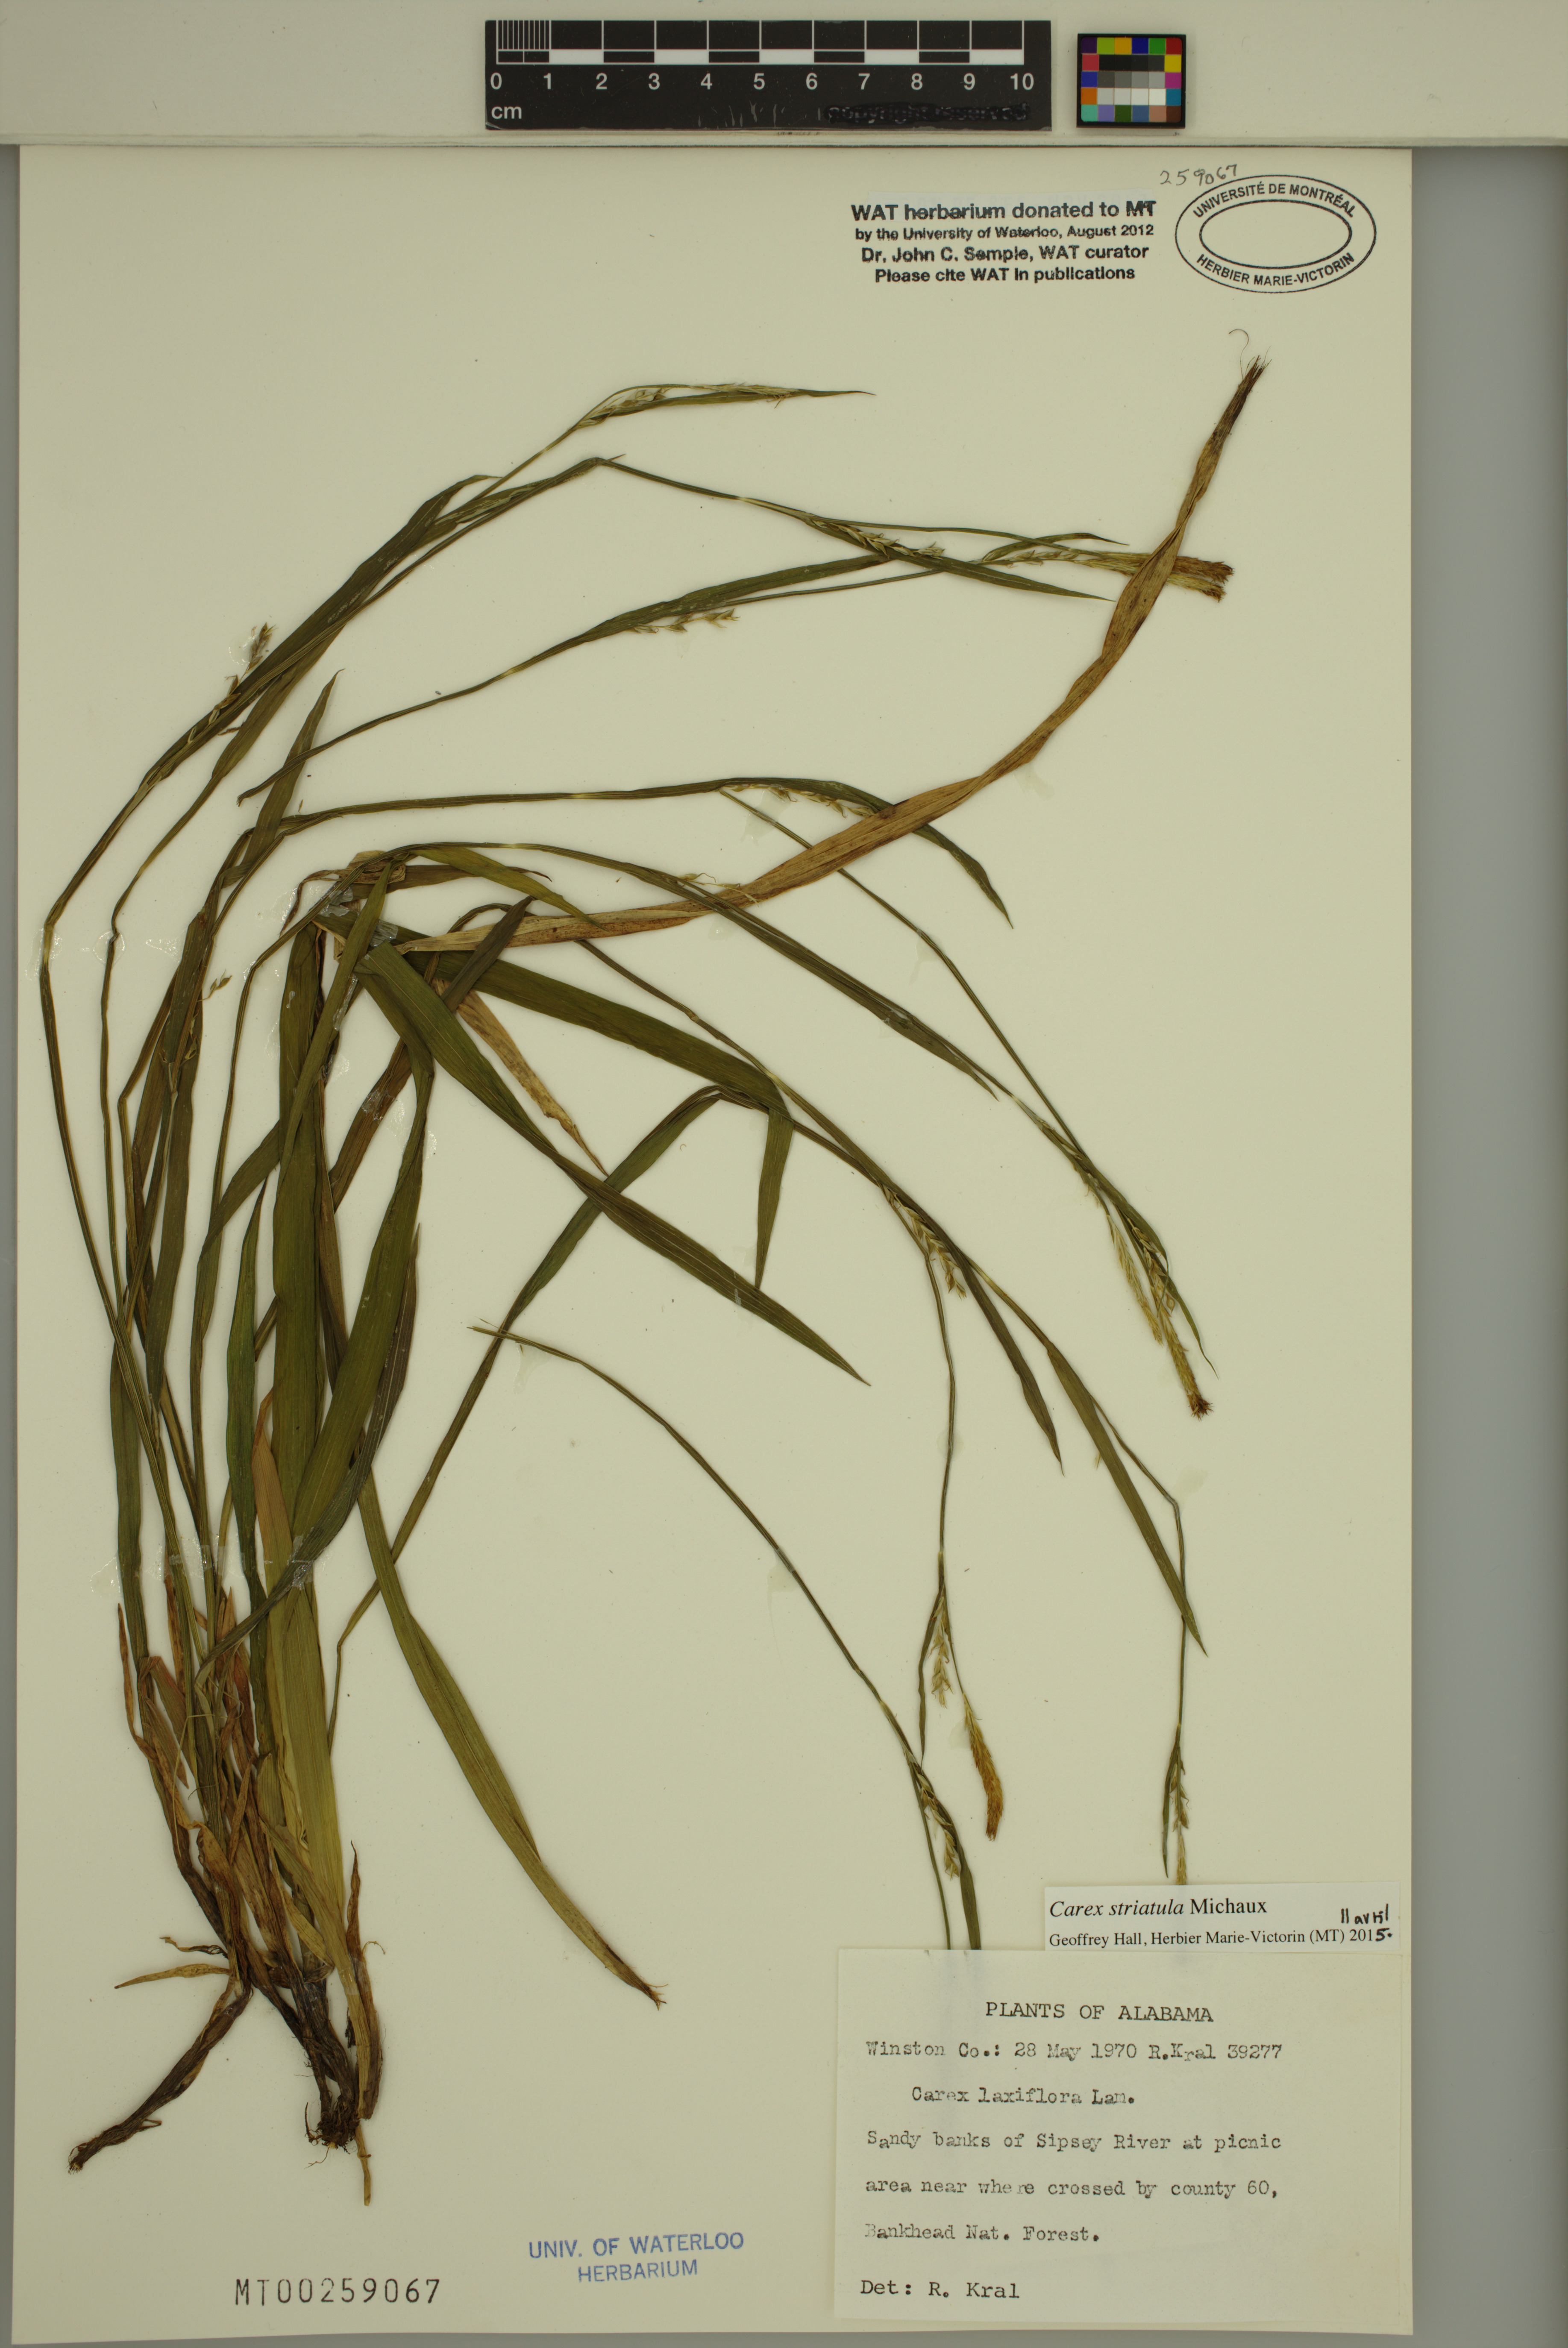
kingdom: Plantae
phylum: Tracheophyta
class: Liliopsida
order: Poales
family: Cyperaceae
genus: Carex
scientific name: Carex striatula
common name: Lined sedge
